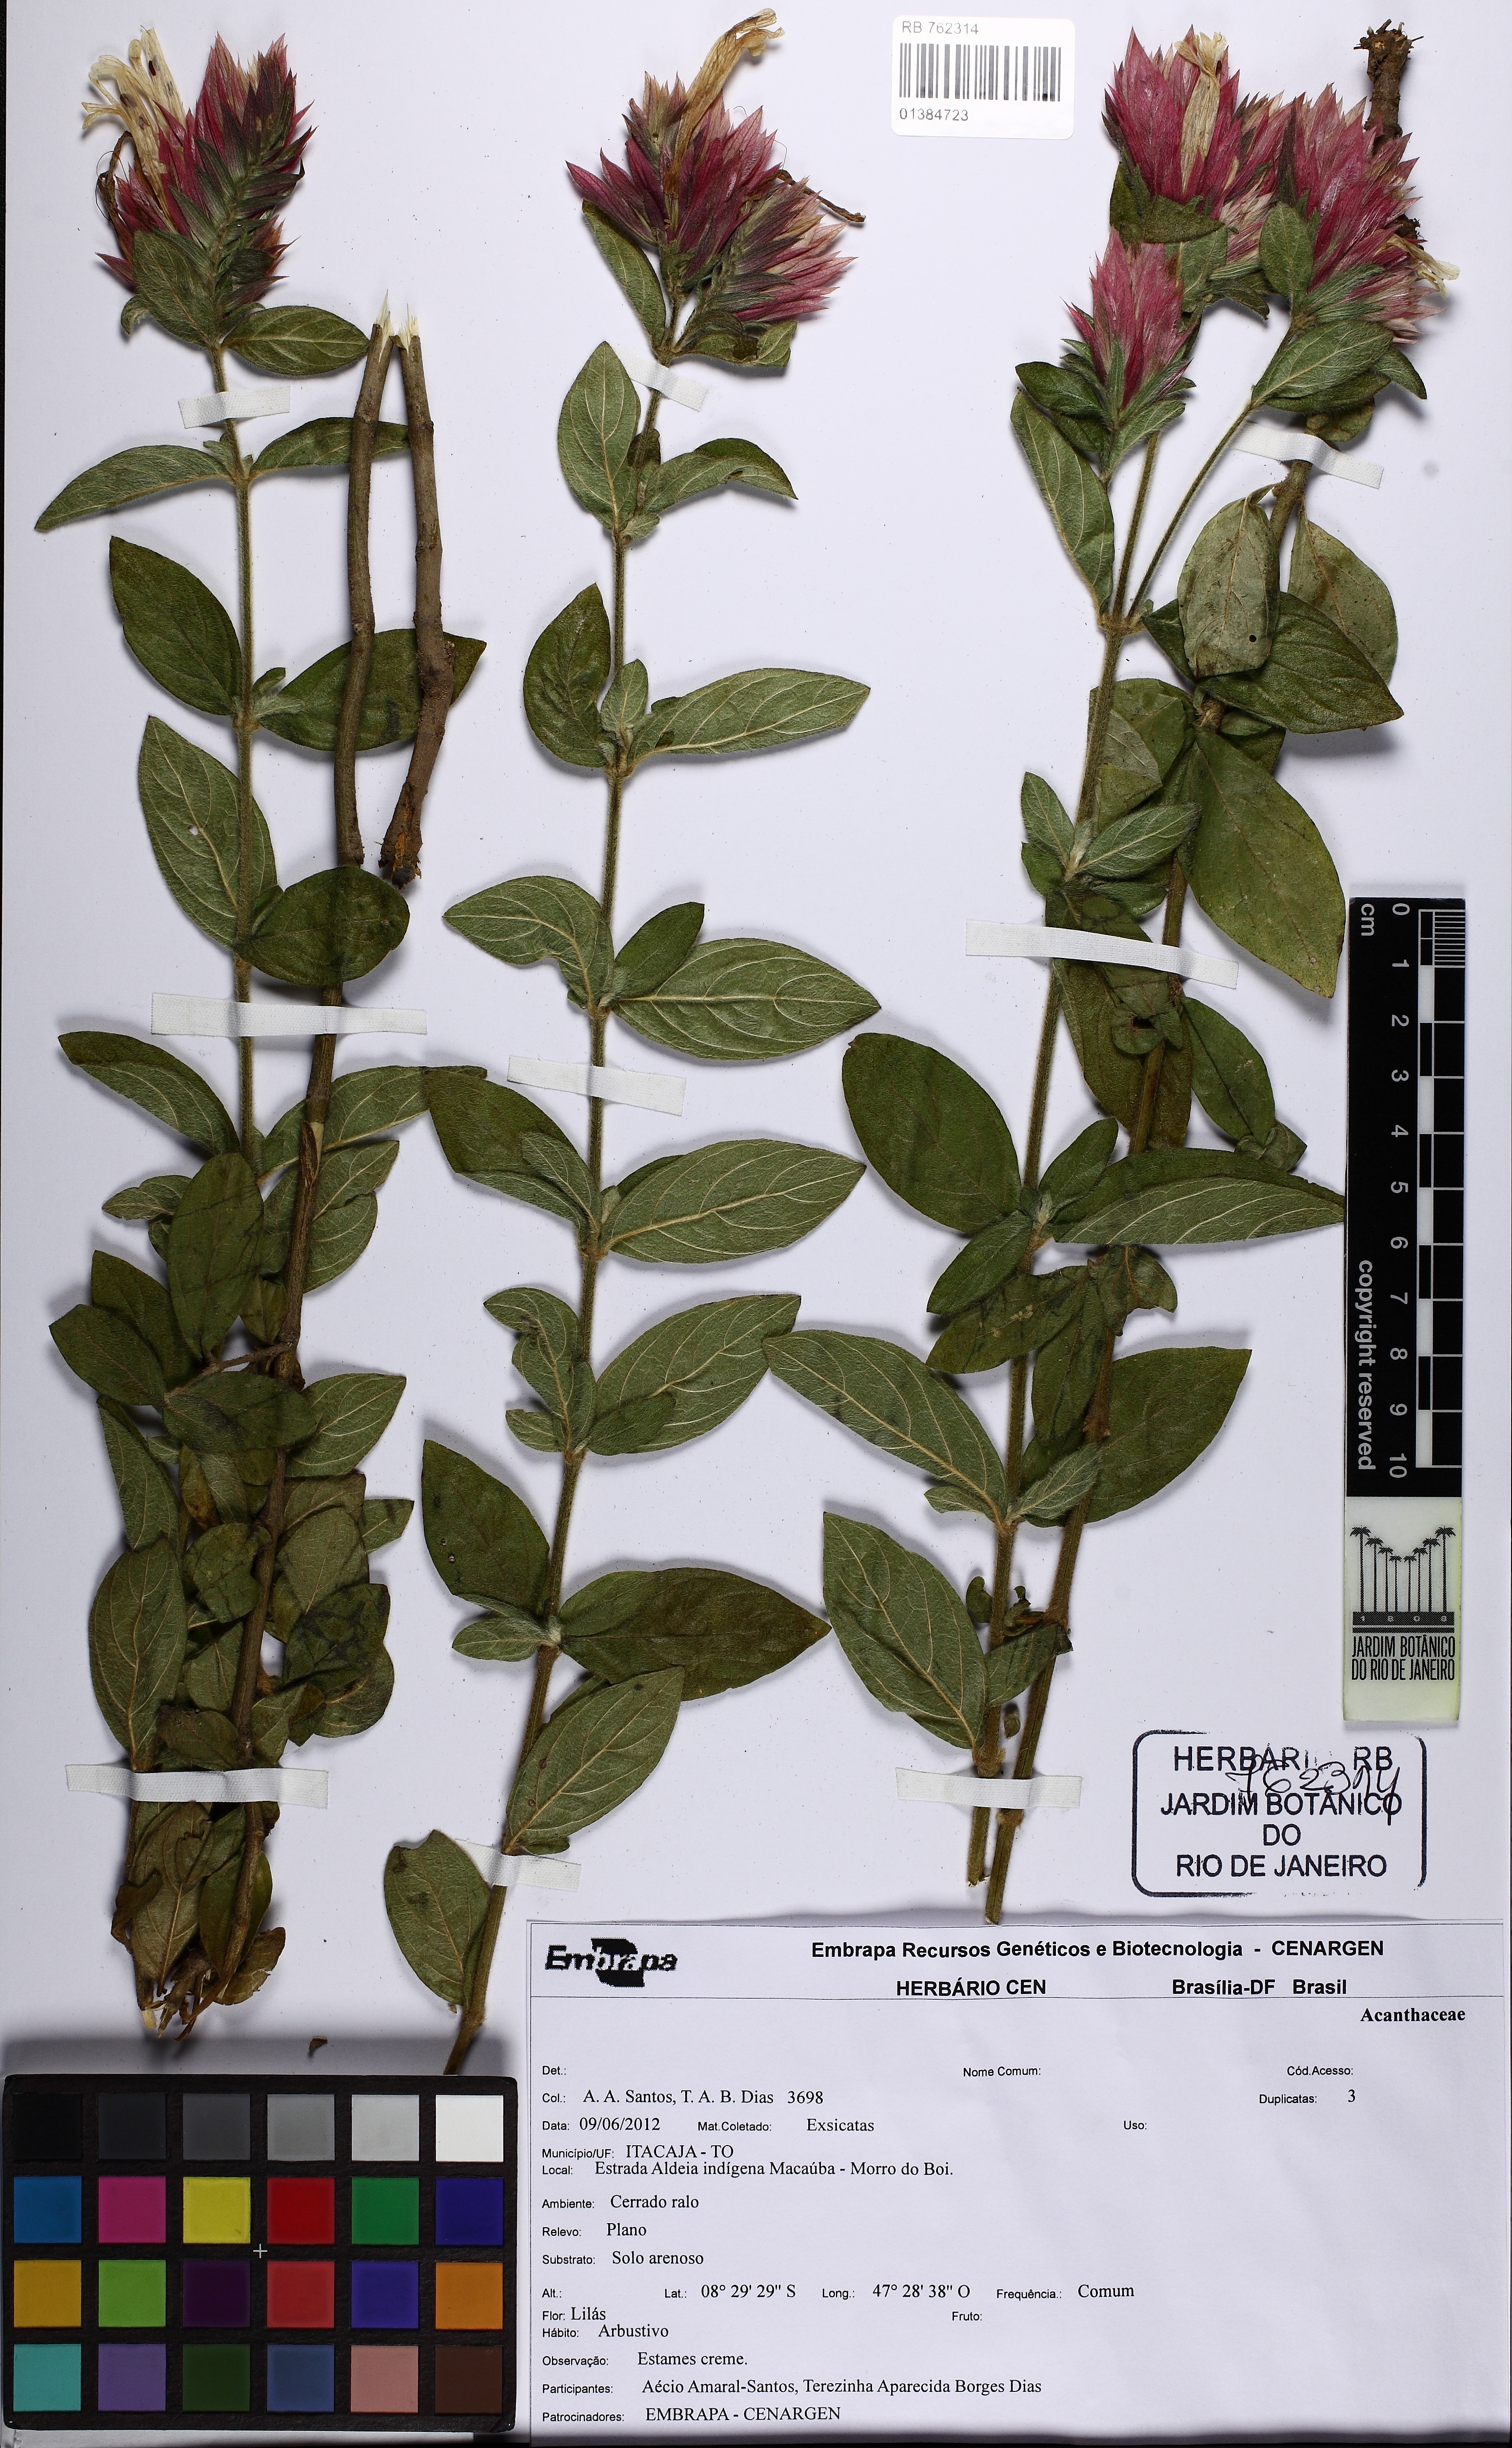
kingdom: Plantae
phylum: Tracheophyta
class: Magnoliopsida
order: Lamiales
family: Acanthaceae
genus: Lepidagathis
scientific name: Lepidagathis
